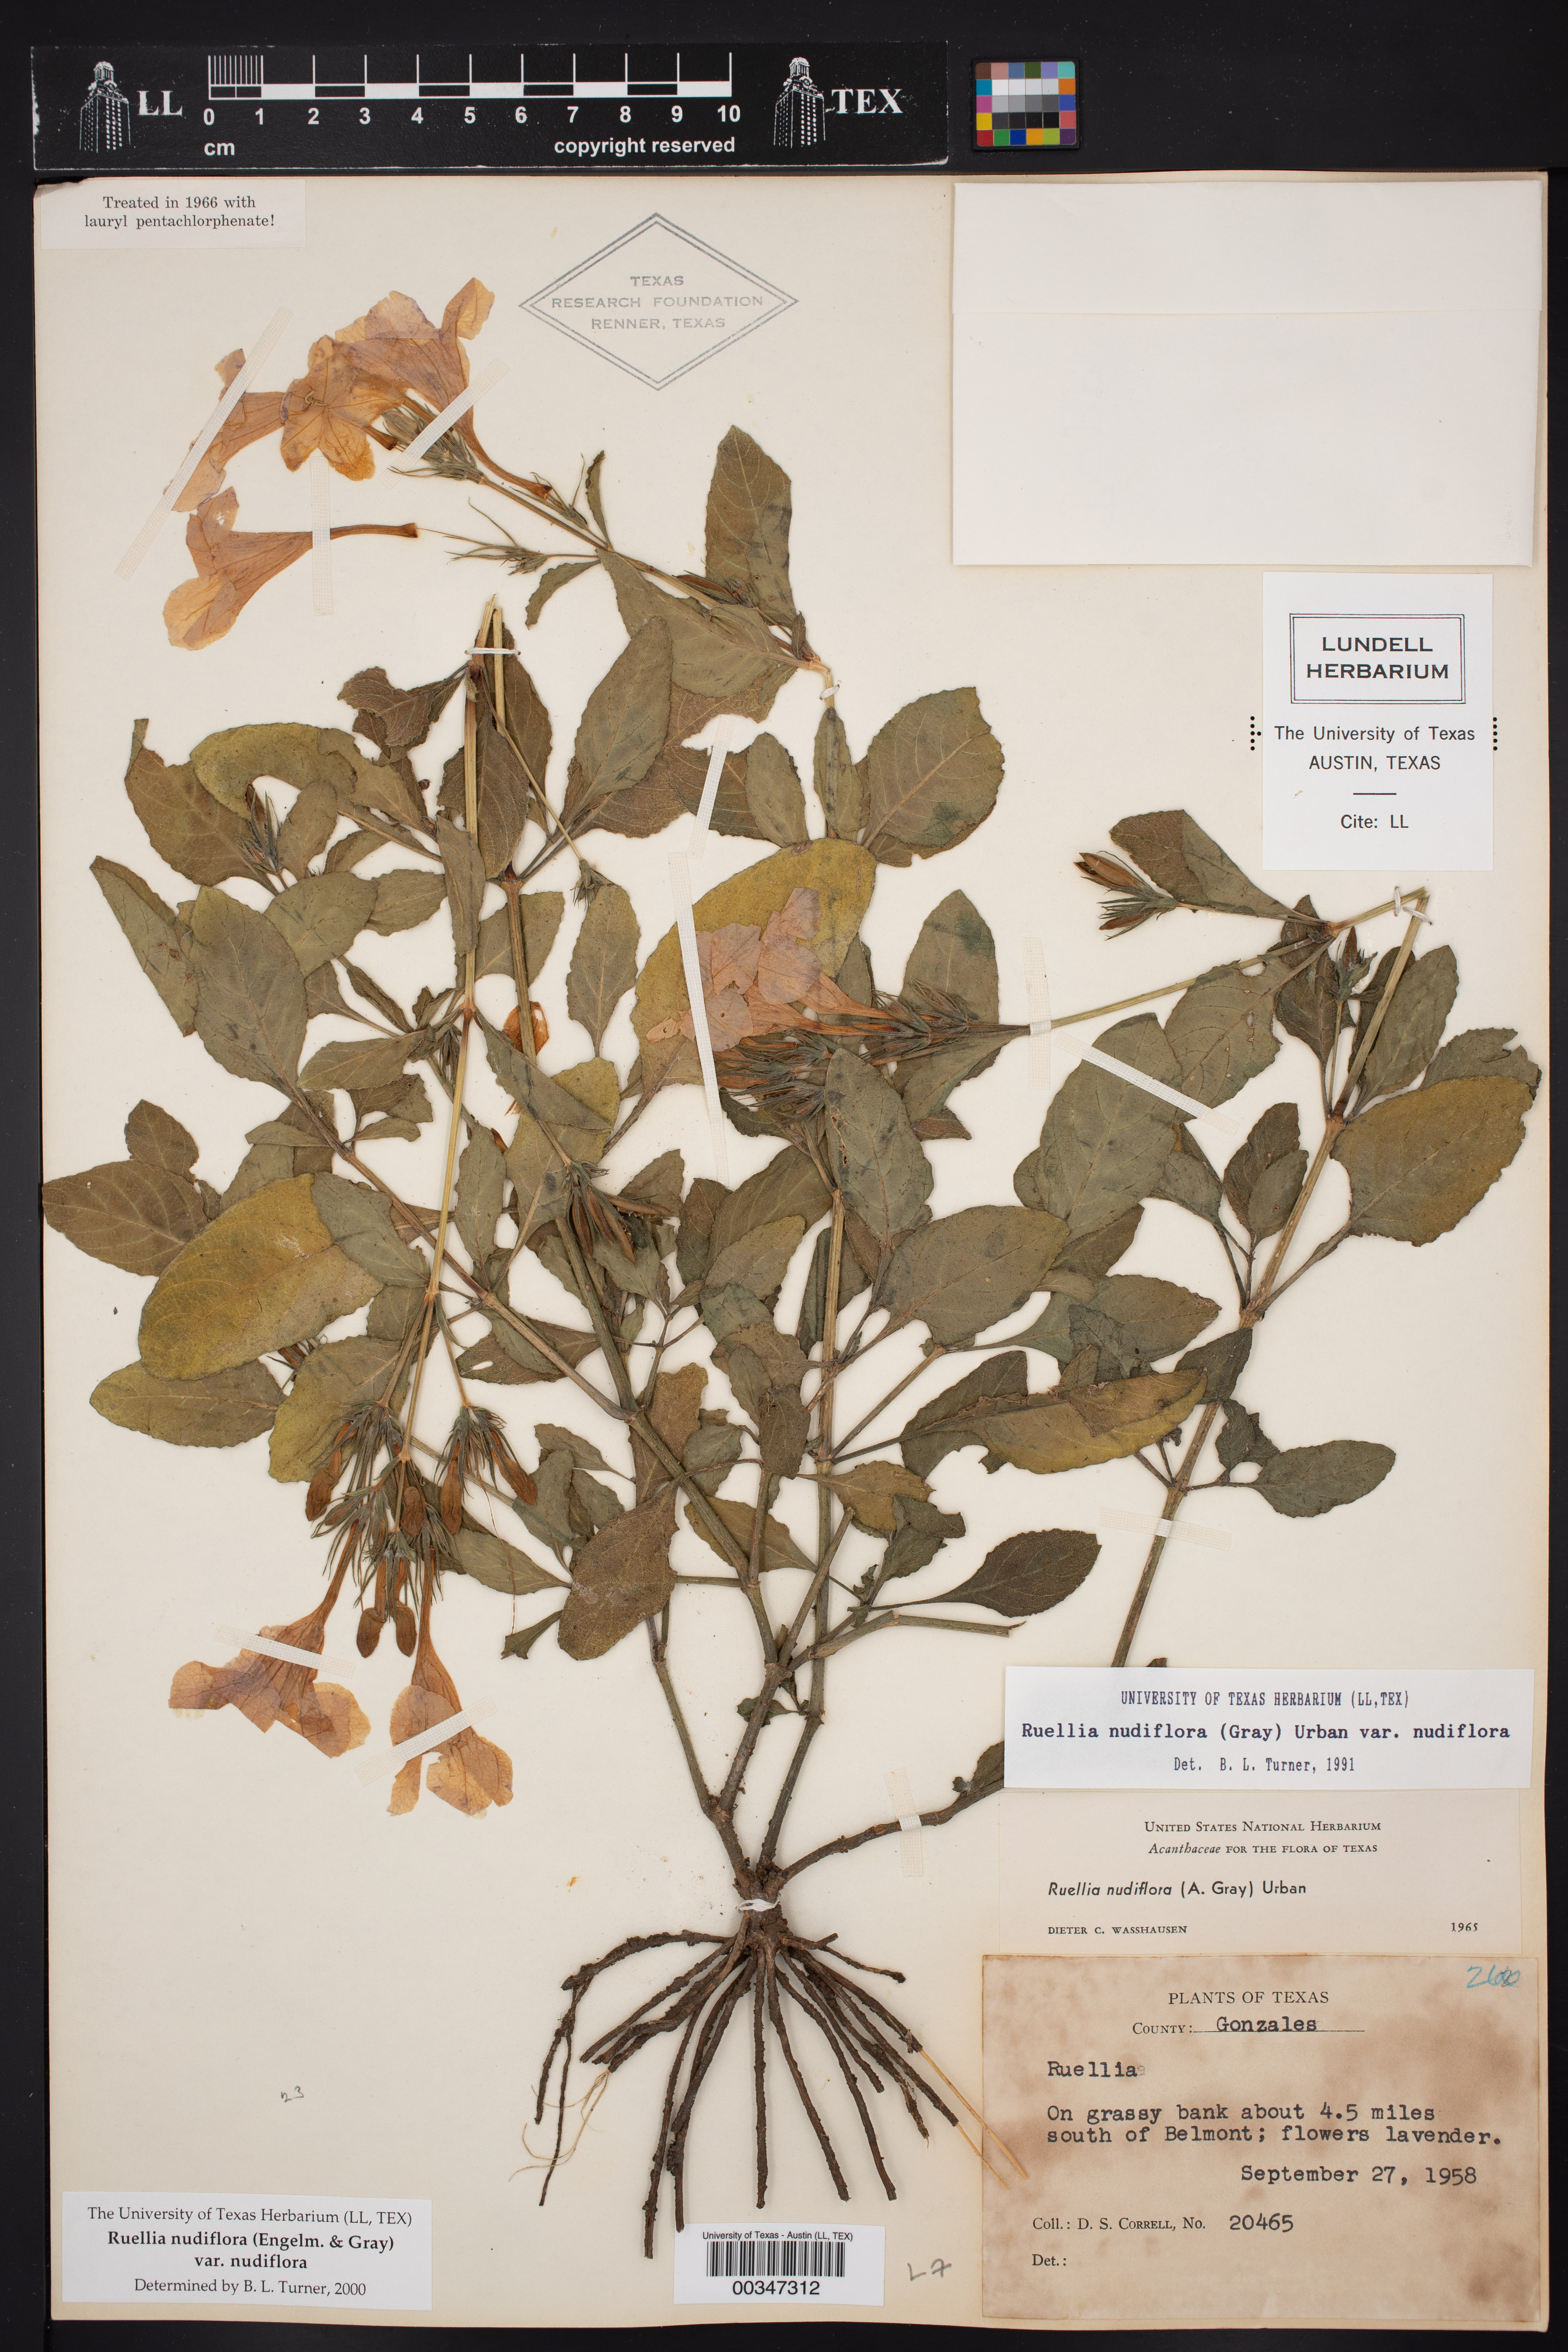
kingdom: Plantae
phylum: Tracheophyta
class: Magnoliopsida
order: Lamiales
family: Acanthaceae
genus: Ruellia
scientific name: Ruellia ciliatiflora
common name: Hairyflower wild petunia
